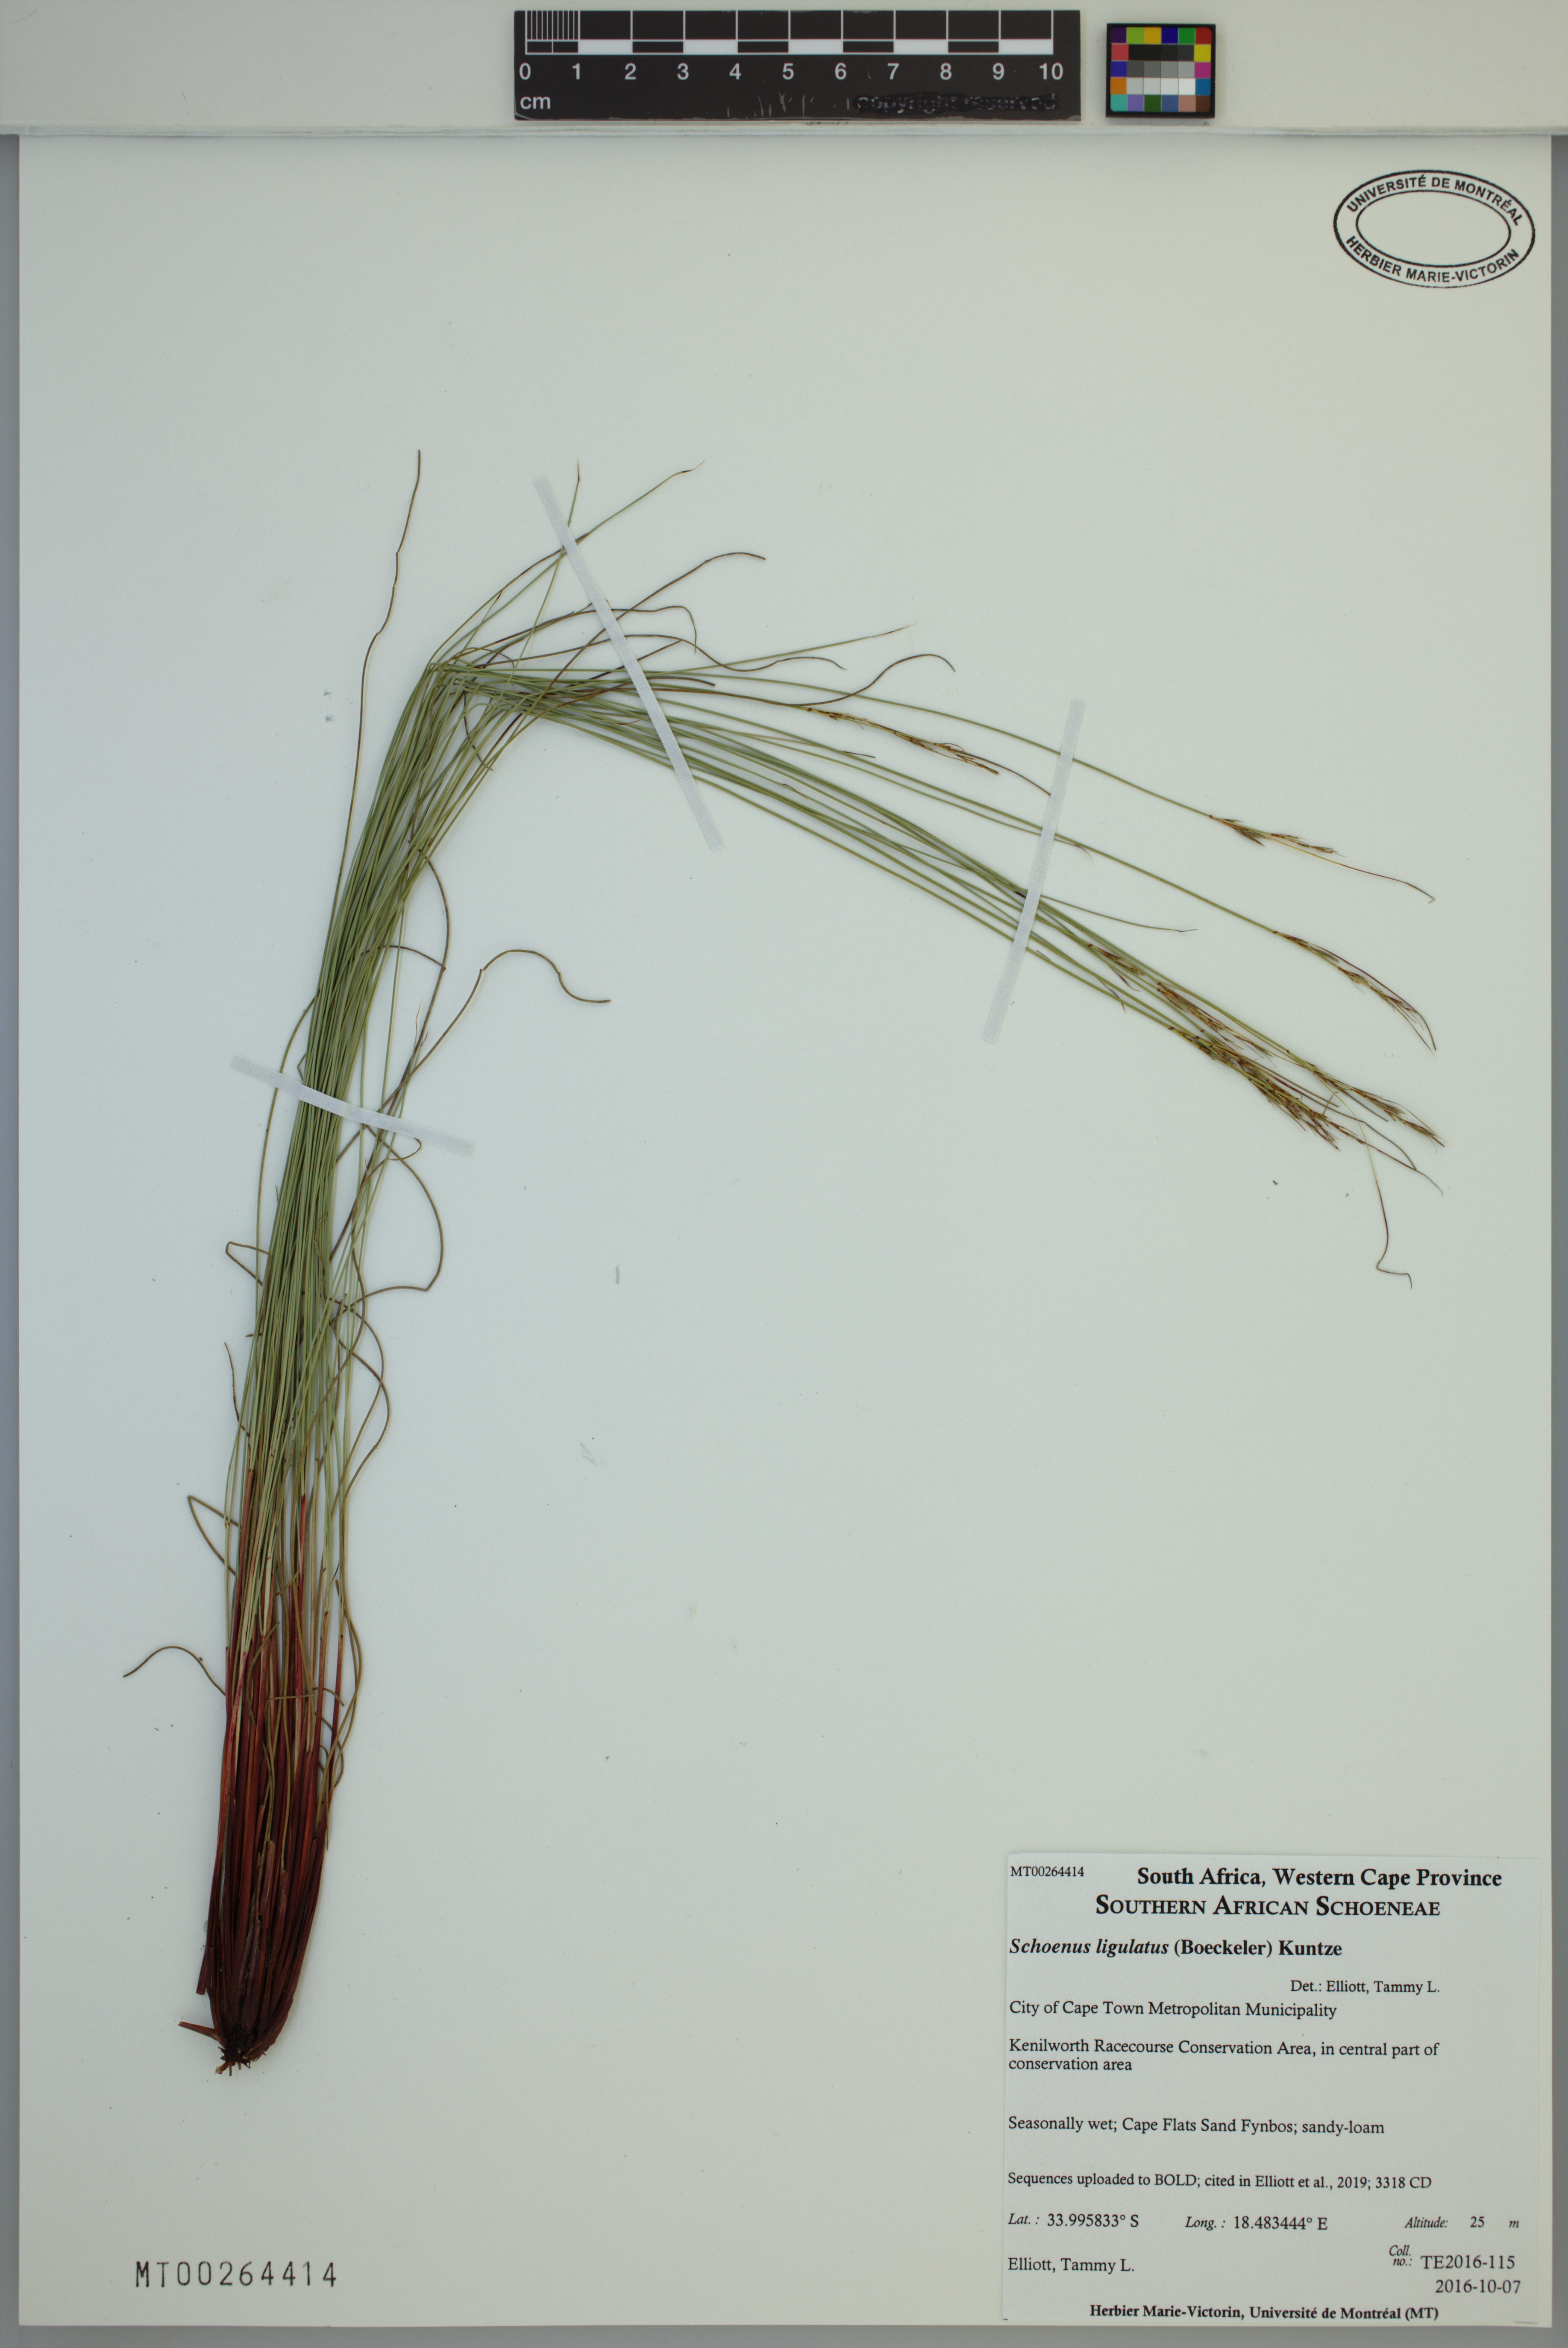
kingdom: Plantae
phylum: Tracheophyta
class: Liliopsida
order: Poales
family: Cyperaceae
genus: Schoenus
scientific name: Schoenus ligulatus
